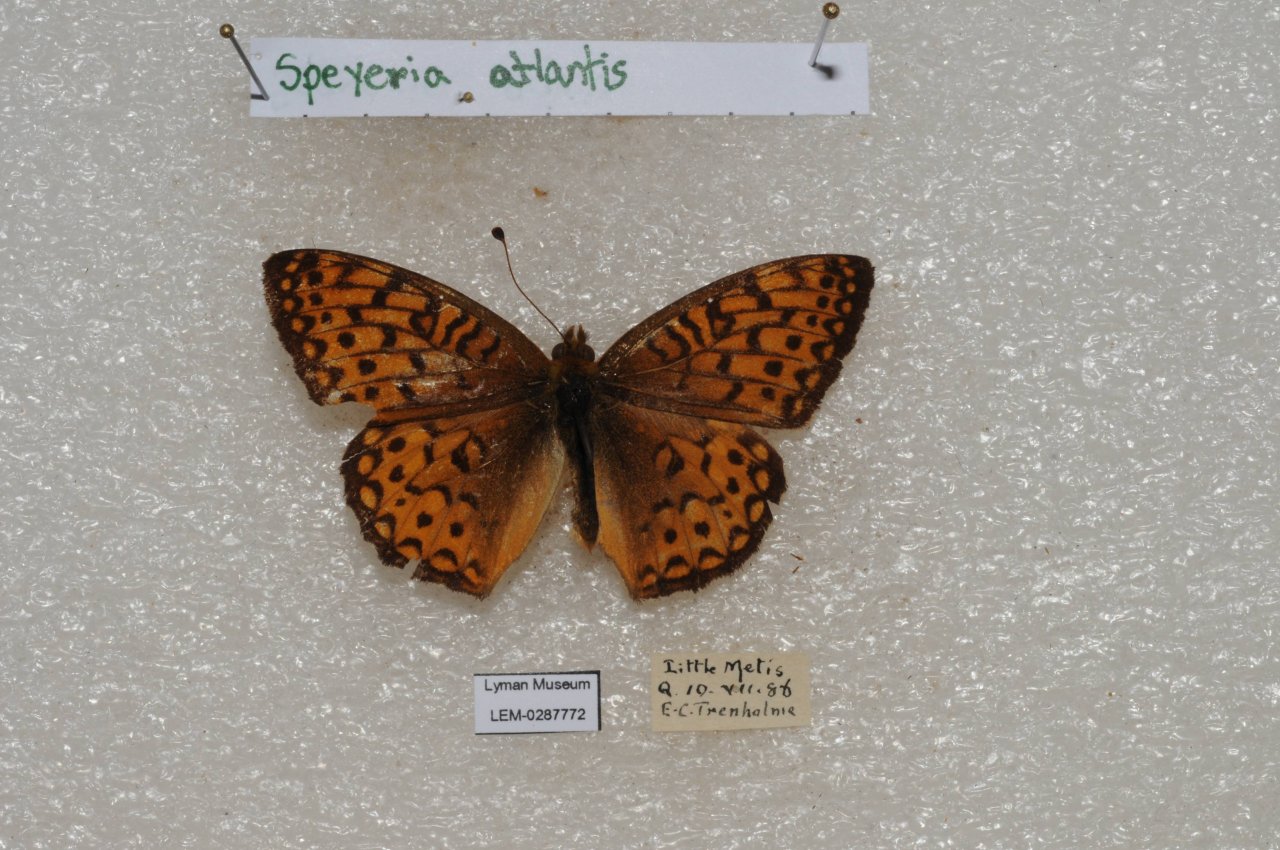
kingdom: Animalia
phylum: Arthropoda
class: Insecta
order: Lepidoptera
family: Nymphalidae
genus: Speyeria
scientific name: Speyeria aphrodite
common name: Aphrodite Fritillary
